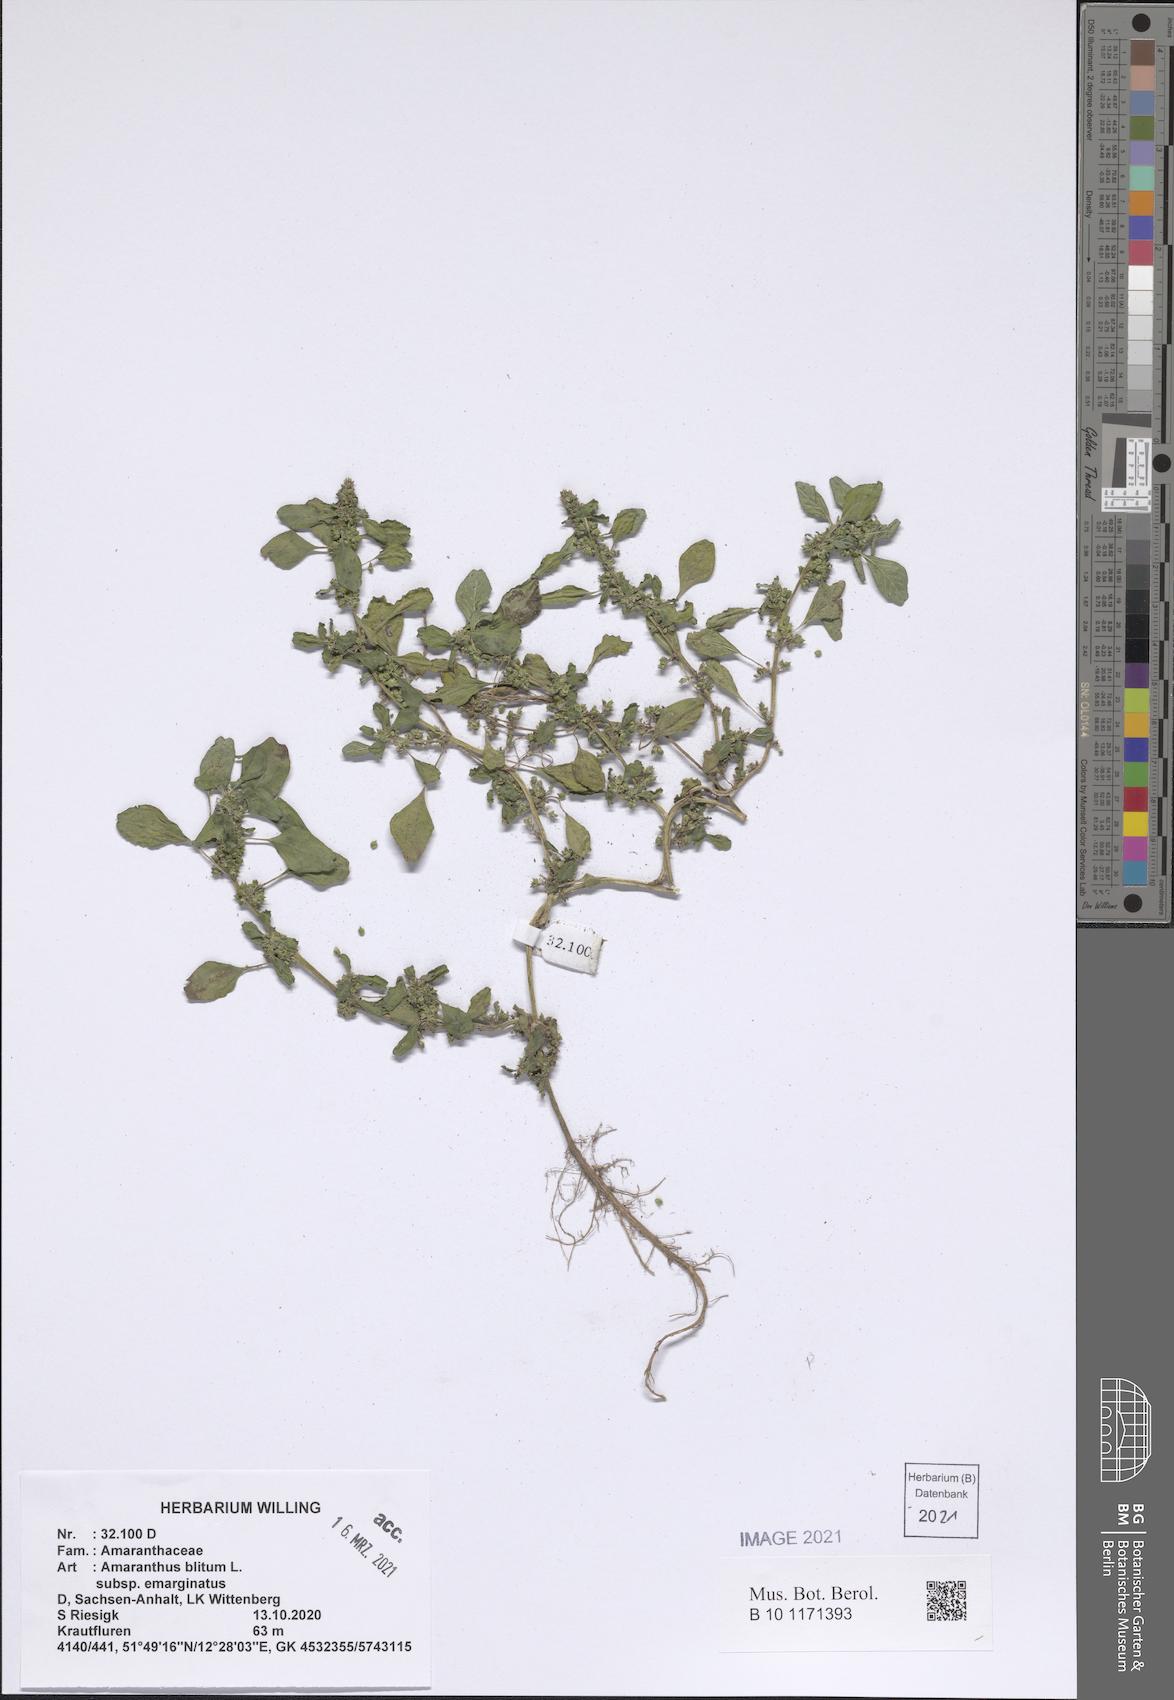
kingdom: Plantae
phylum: Tracheophyta
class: Magnoliopsida
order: Caryophyllales
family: Amaranthaceae
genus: Amaranthus
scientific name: Amaranthus emarginatus
